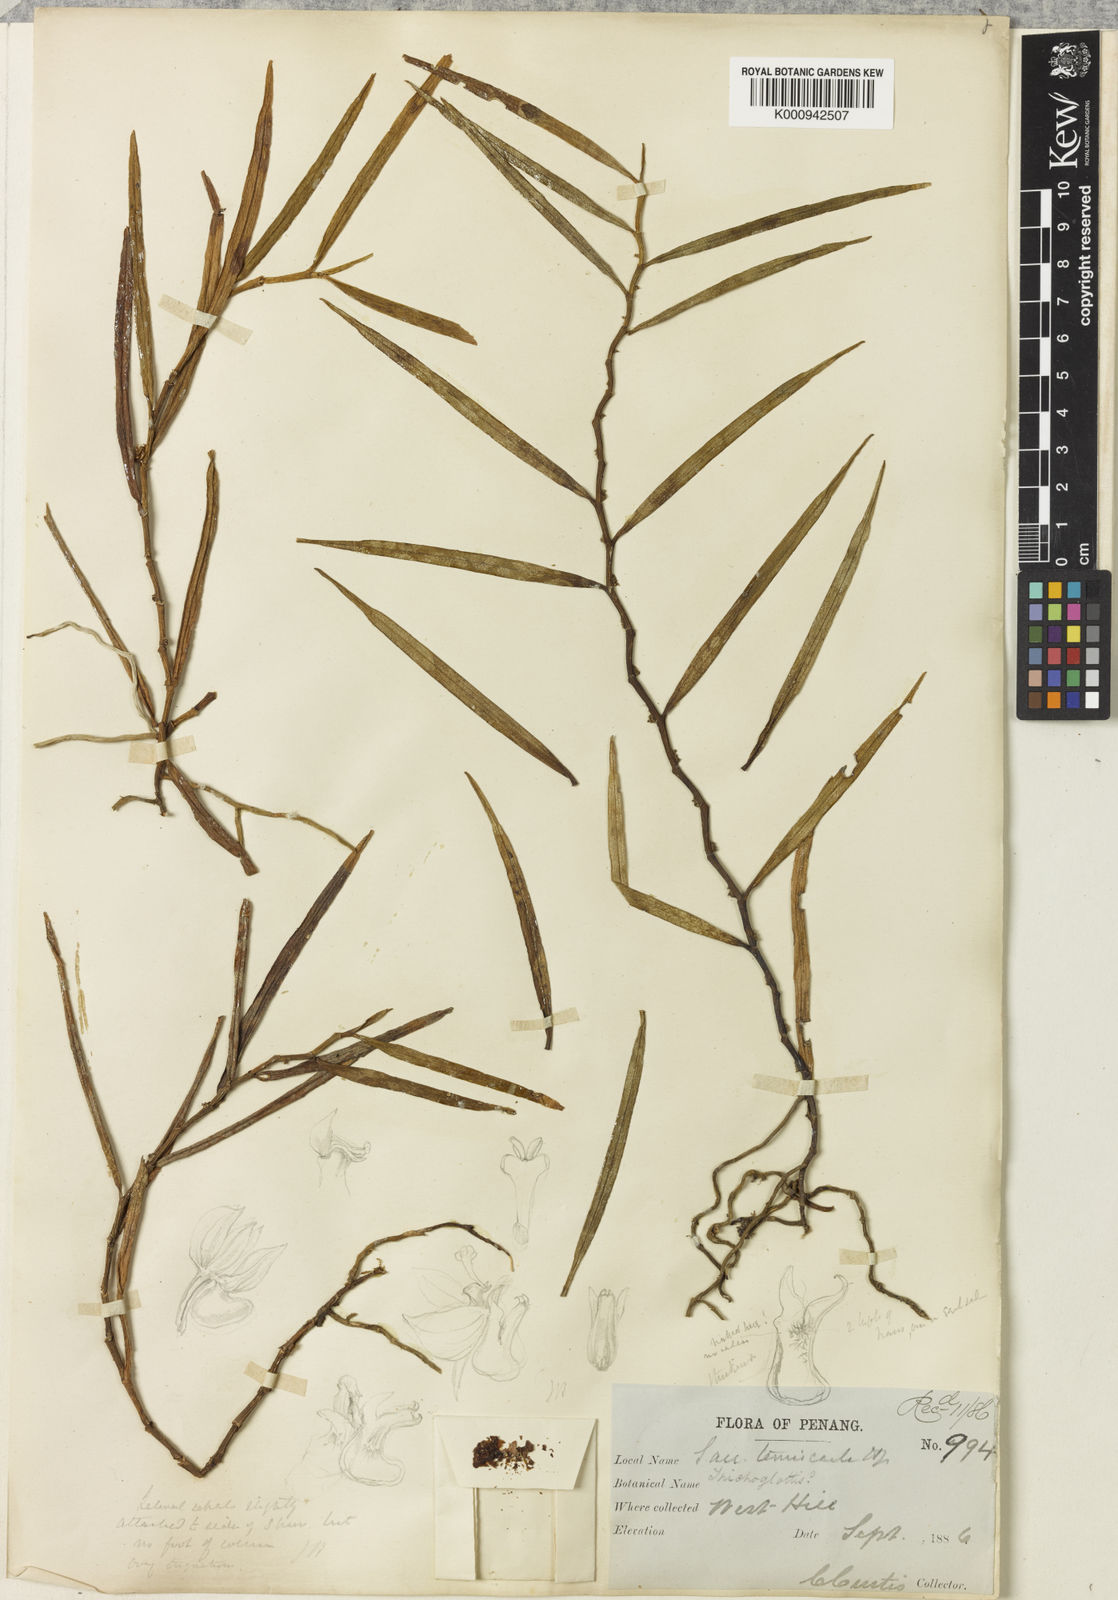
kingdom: Plantae
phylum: Tracheophyta
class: Liliopsida
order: Asparagales
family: Orchidaceae
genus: Trichoglottis
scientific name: Trichoglottis ventricularis
